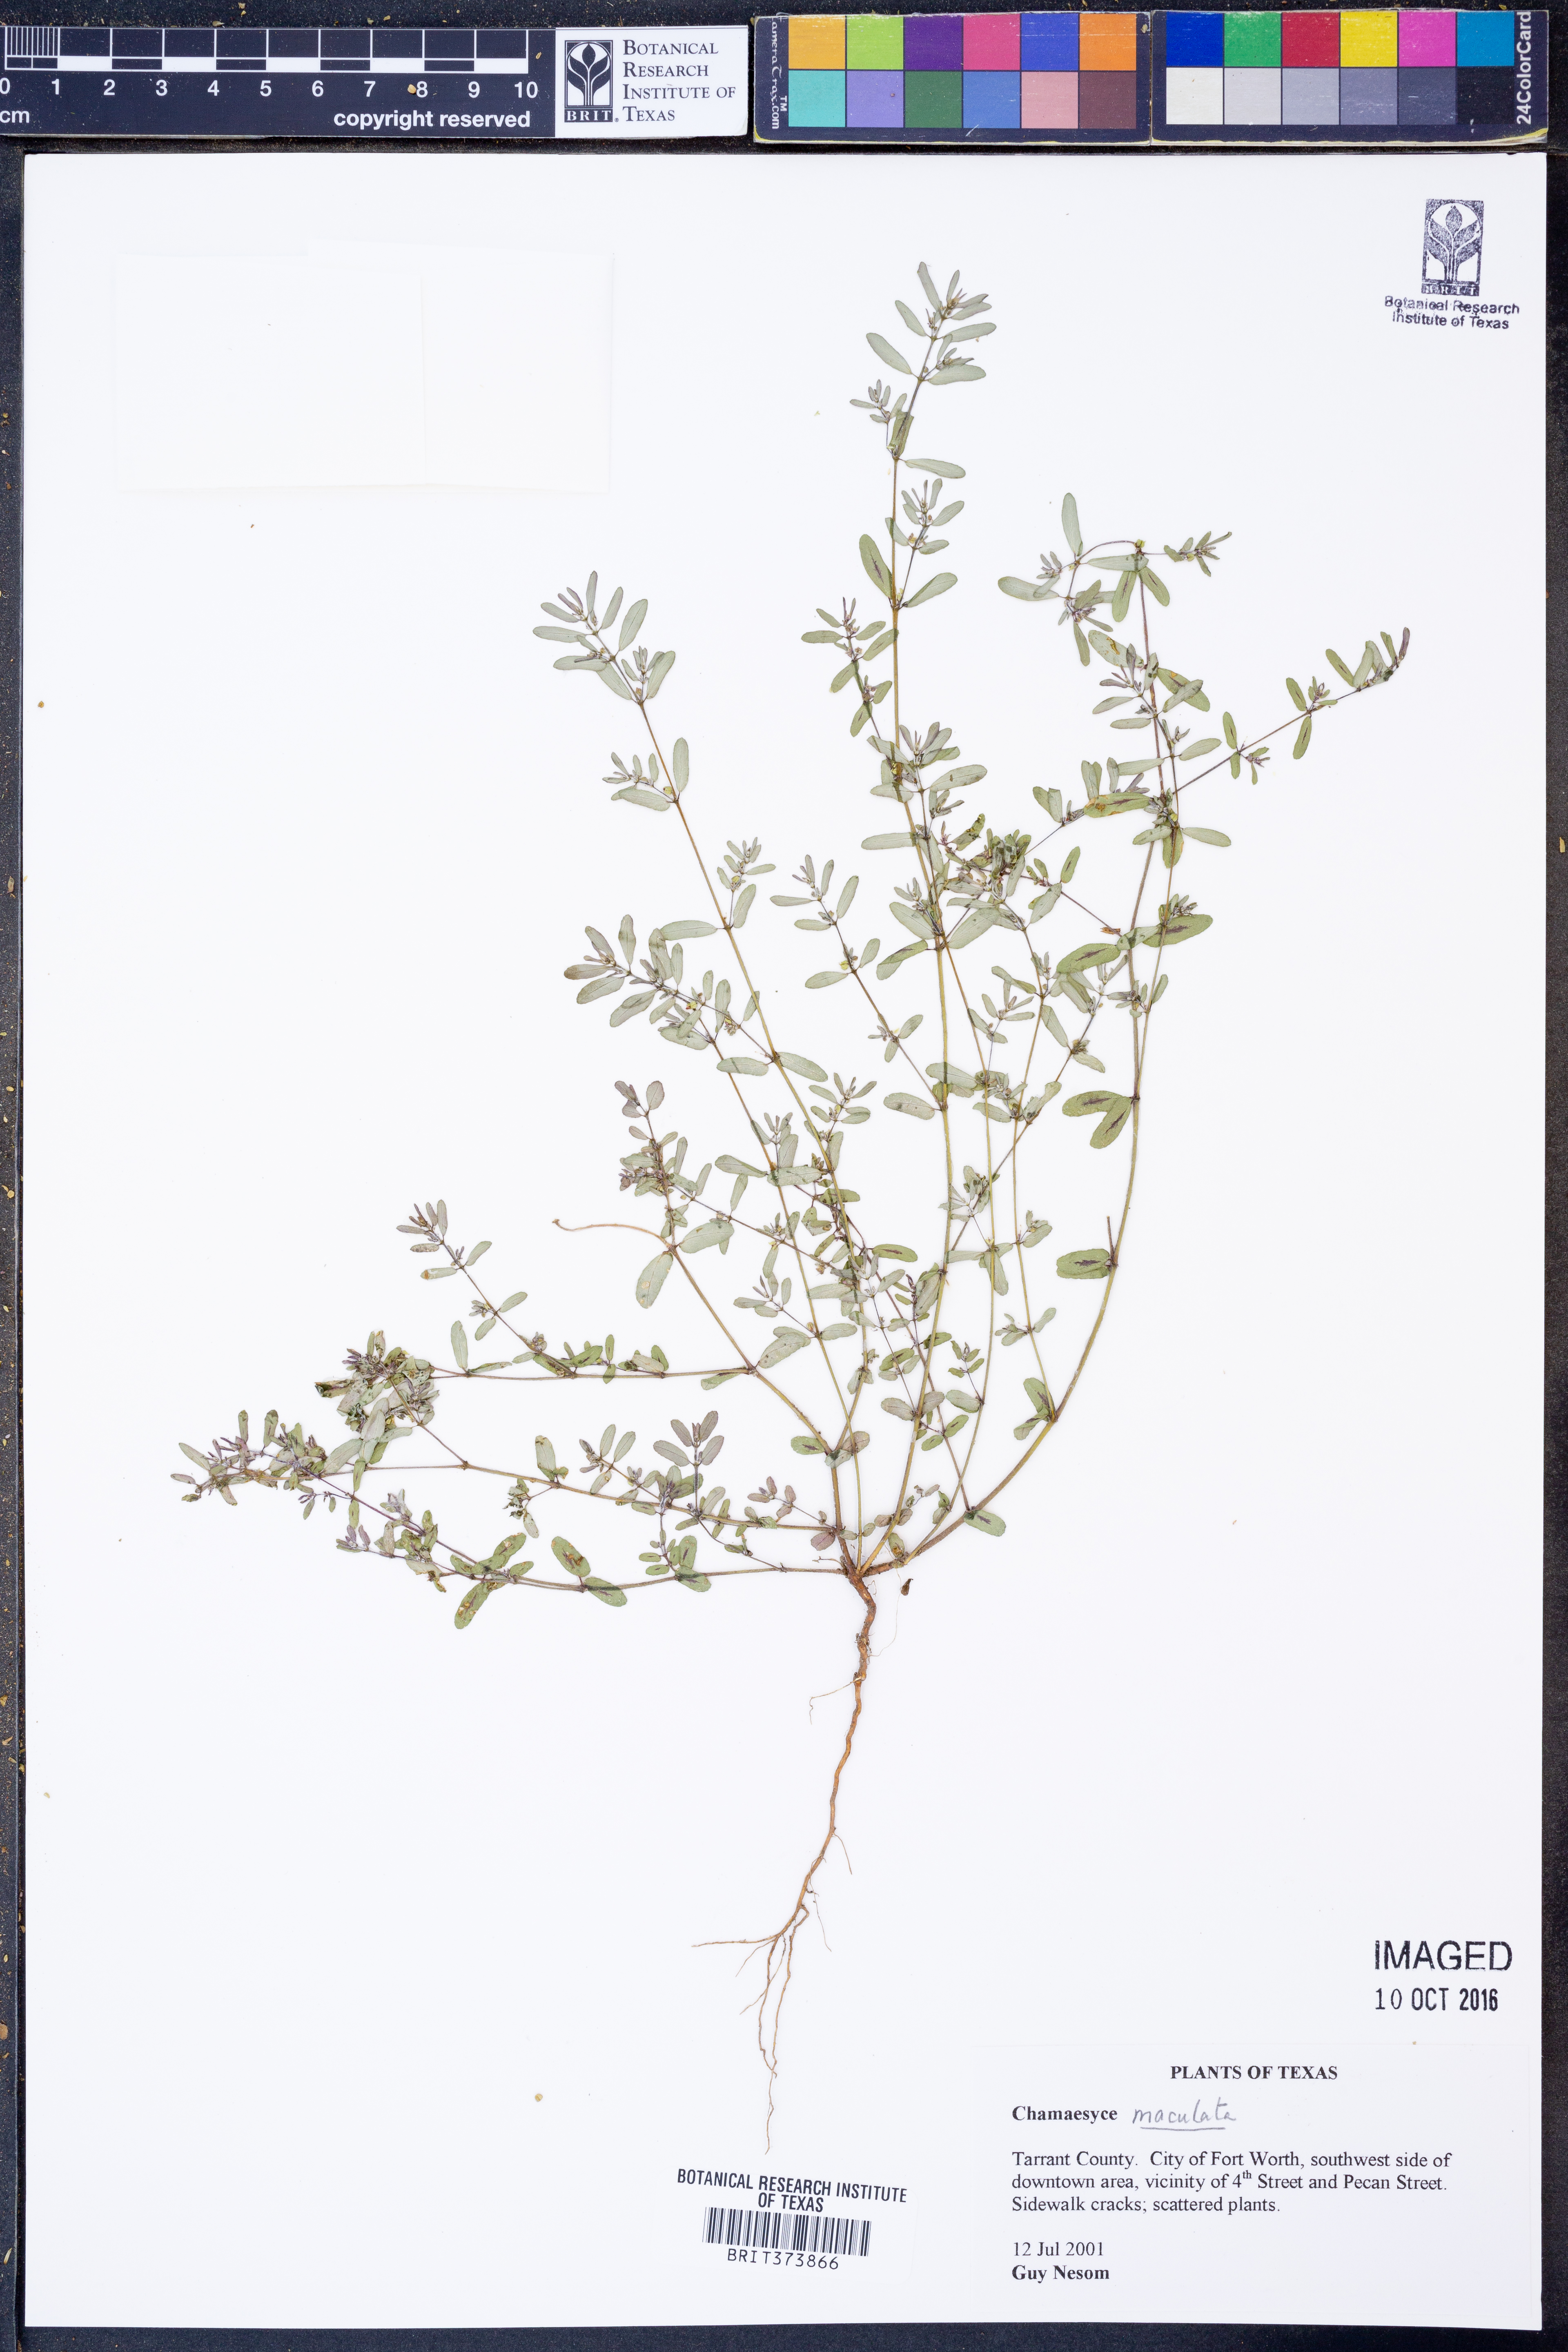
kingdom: Plantae
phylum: Tracheophyta
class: Magnoliopsida
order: Malpighiales
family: Euphorbiaceae
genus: Euphorbia
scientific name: Euphorbia maculata
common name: Spotted spurge
